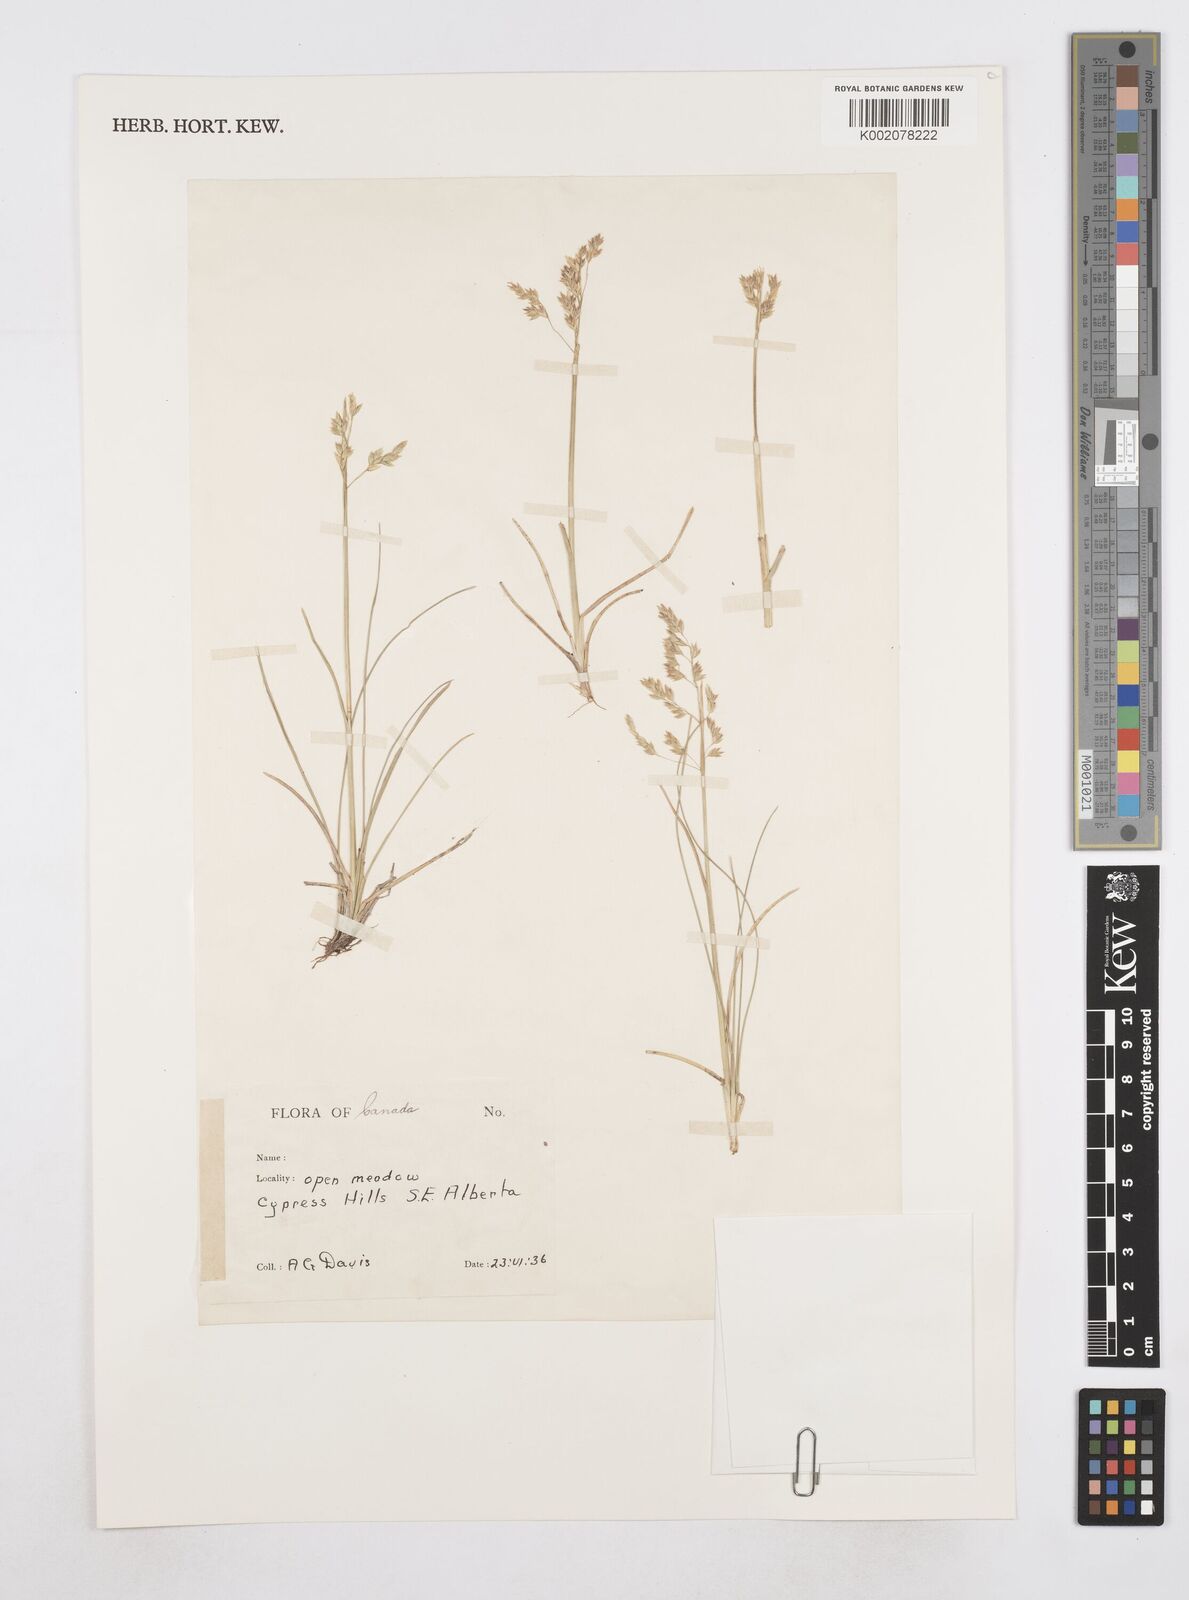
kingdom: Plantae
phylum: Tracheophyta
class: Liliopsida
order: Poales
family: Poaceae
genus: Poa
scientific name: Poa
